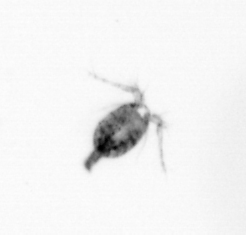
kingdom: Animalia
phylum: Arthropoda
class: Copepoda
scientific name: Copepoda
